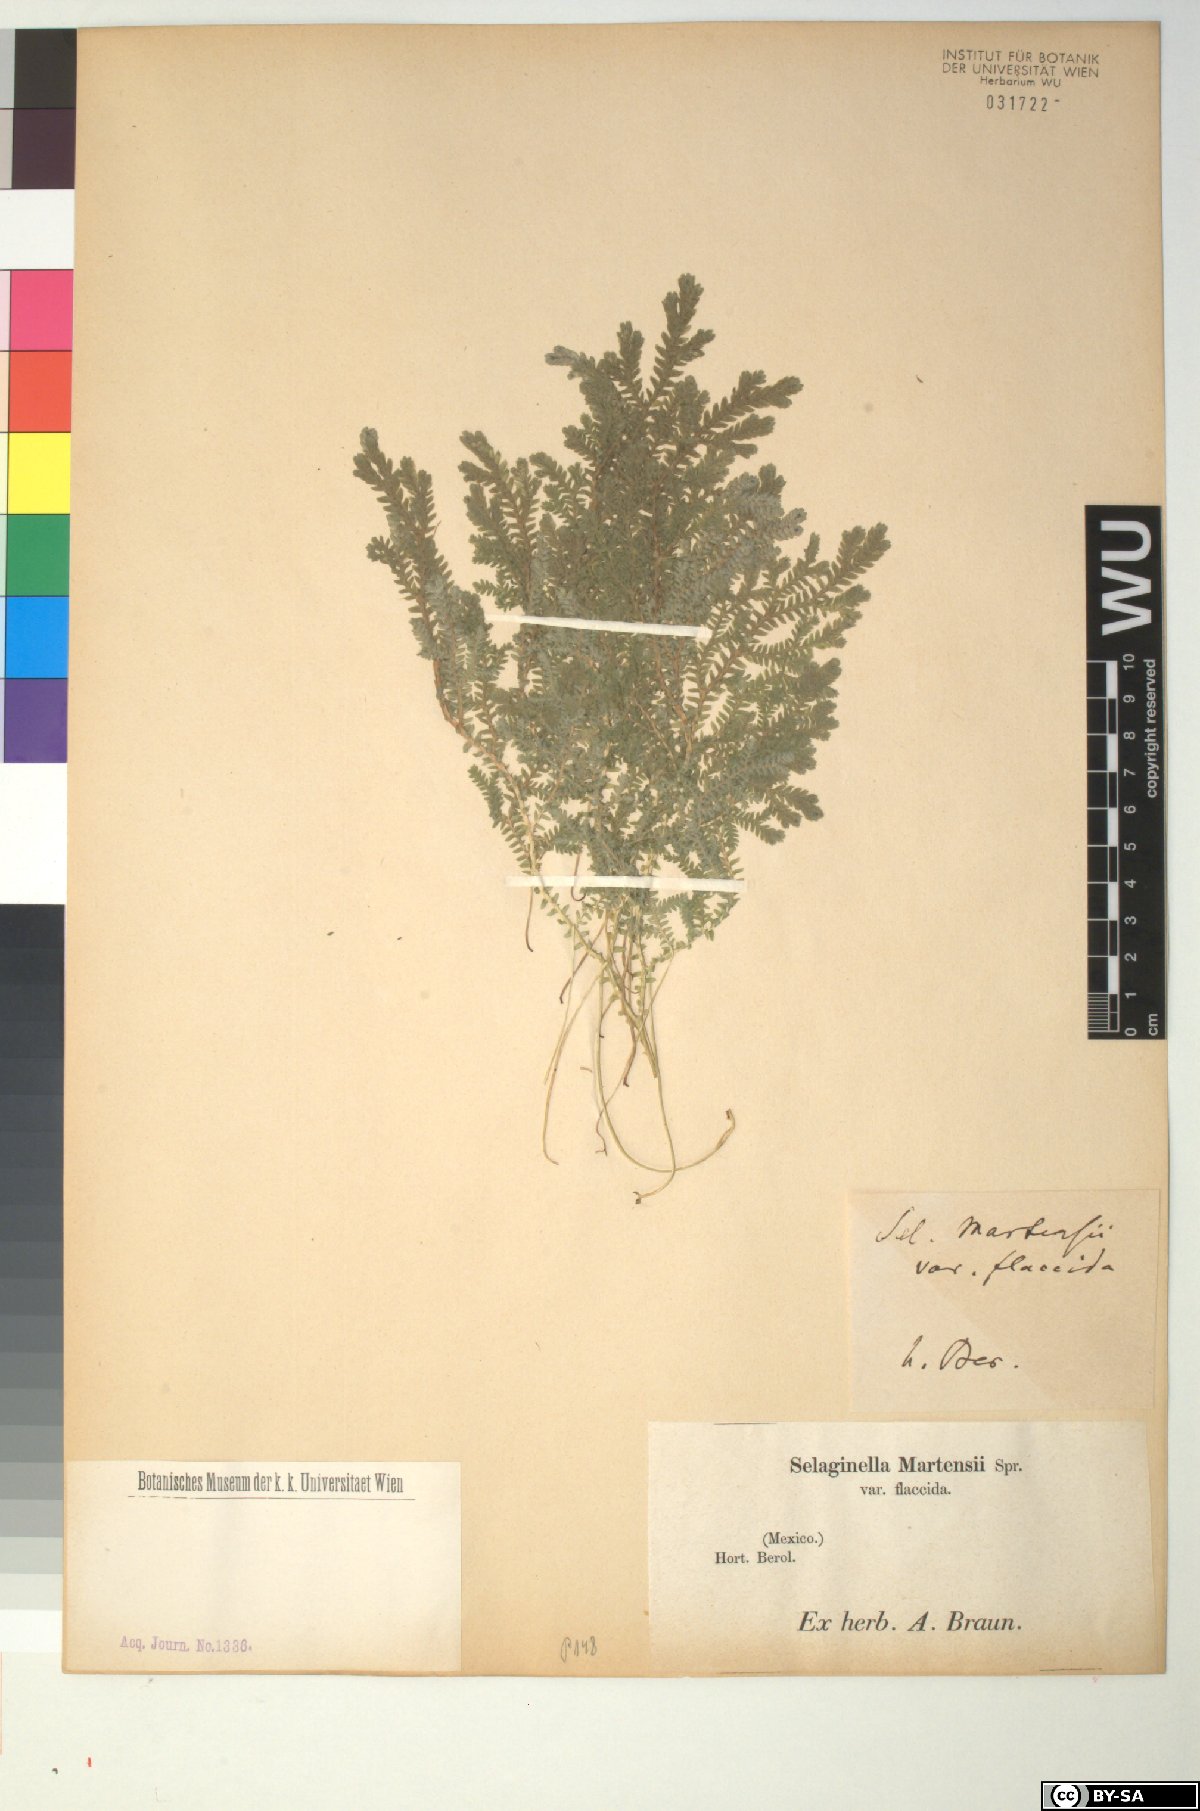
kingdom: Plantae
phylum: Tracheophyta
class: Lycopodiopsida
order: Selaginellales
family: Selaginellaceae
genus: Selaginella
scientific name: Selaginella martensii
